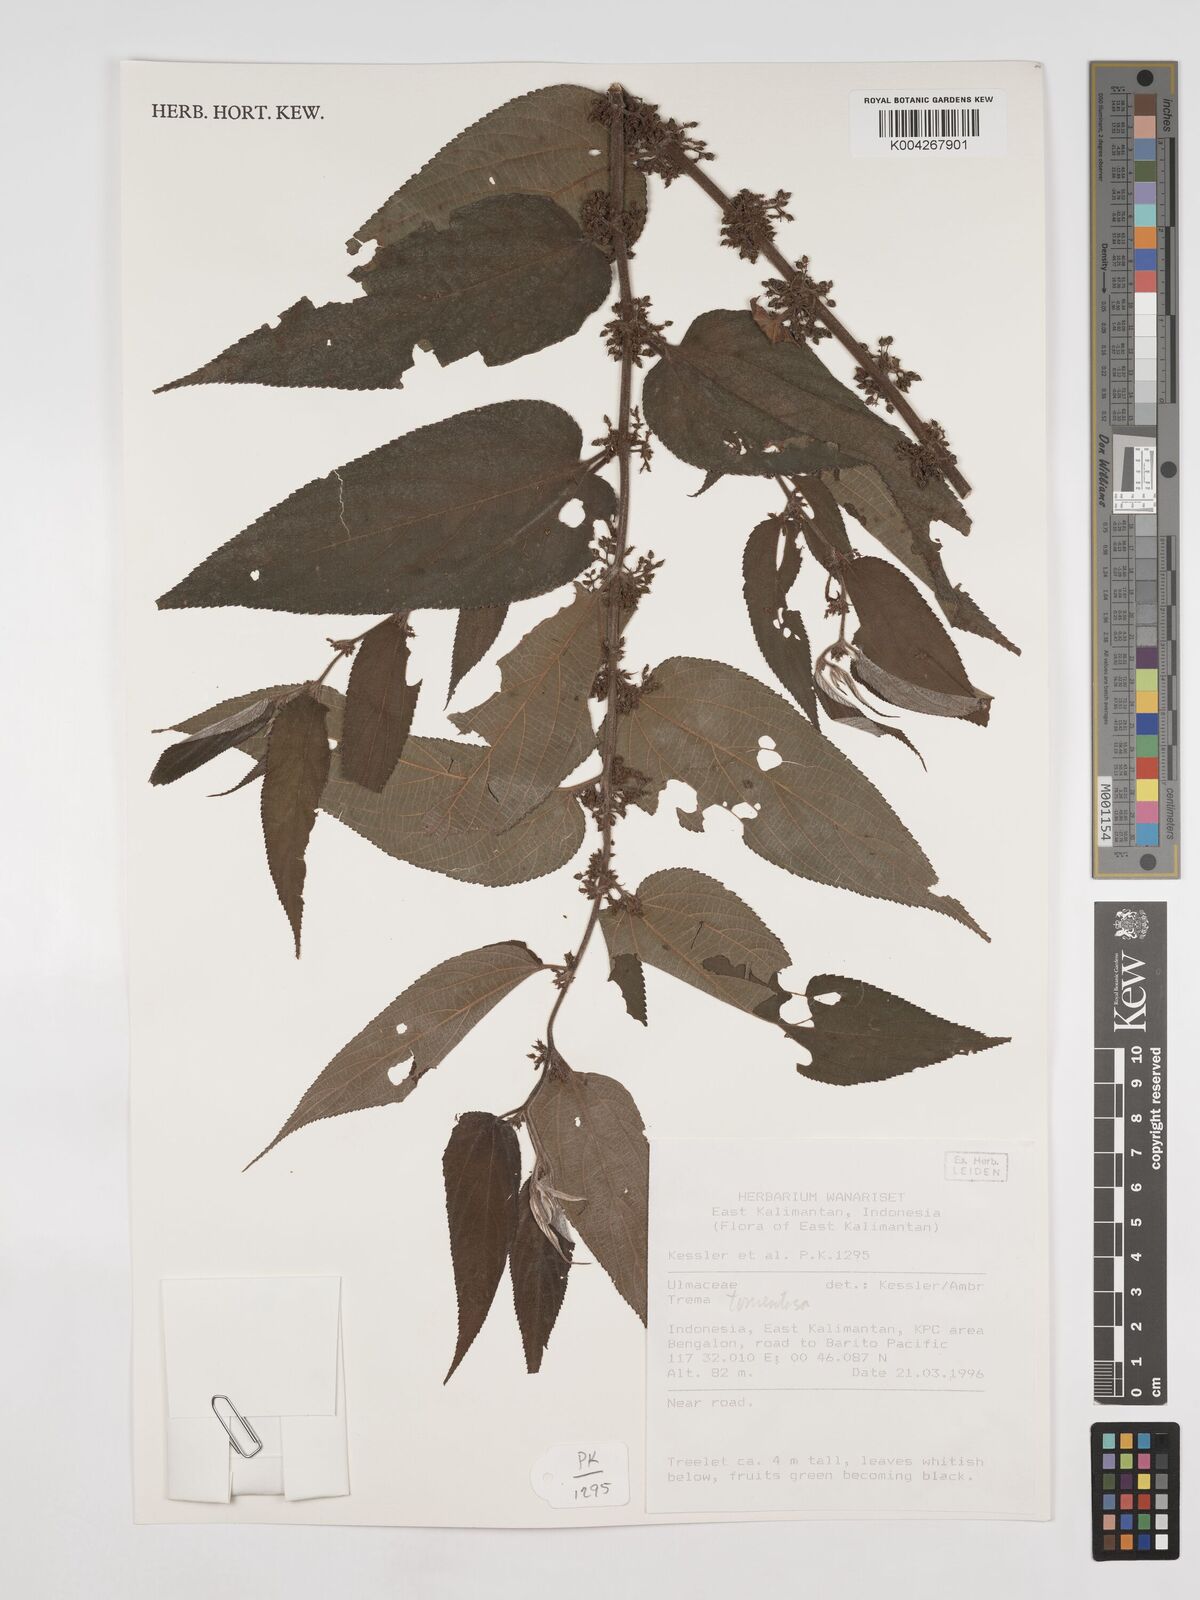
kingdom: Plantae
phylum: Tracheophyta
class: Magnoliopsida
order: Rosales
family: Cannabaceae
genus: Trema
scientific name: Trema tomentosum
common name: Peach-leaf-poisonbush
